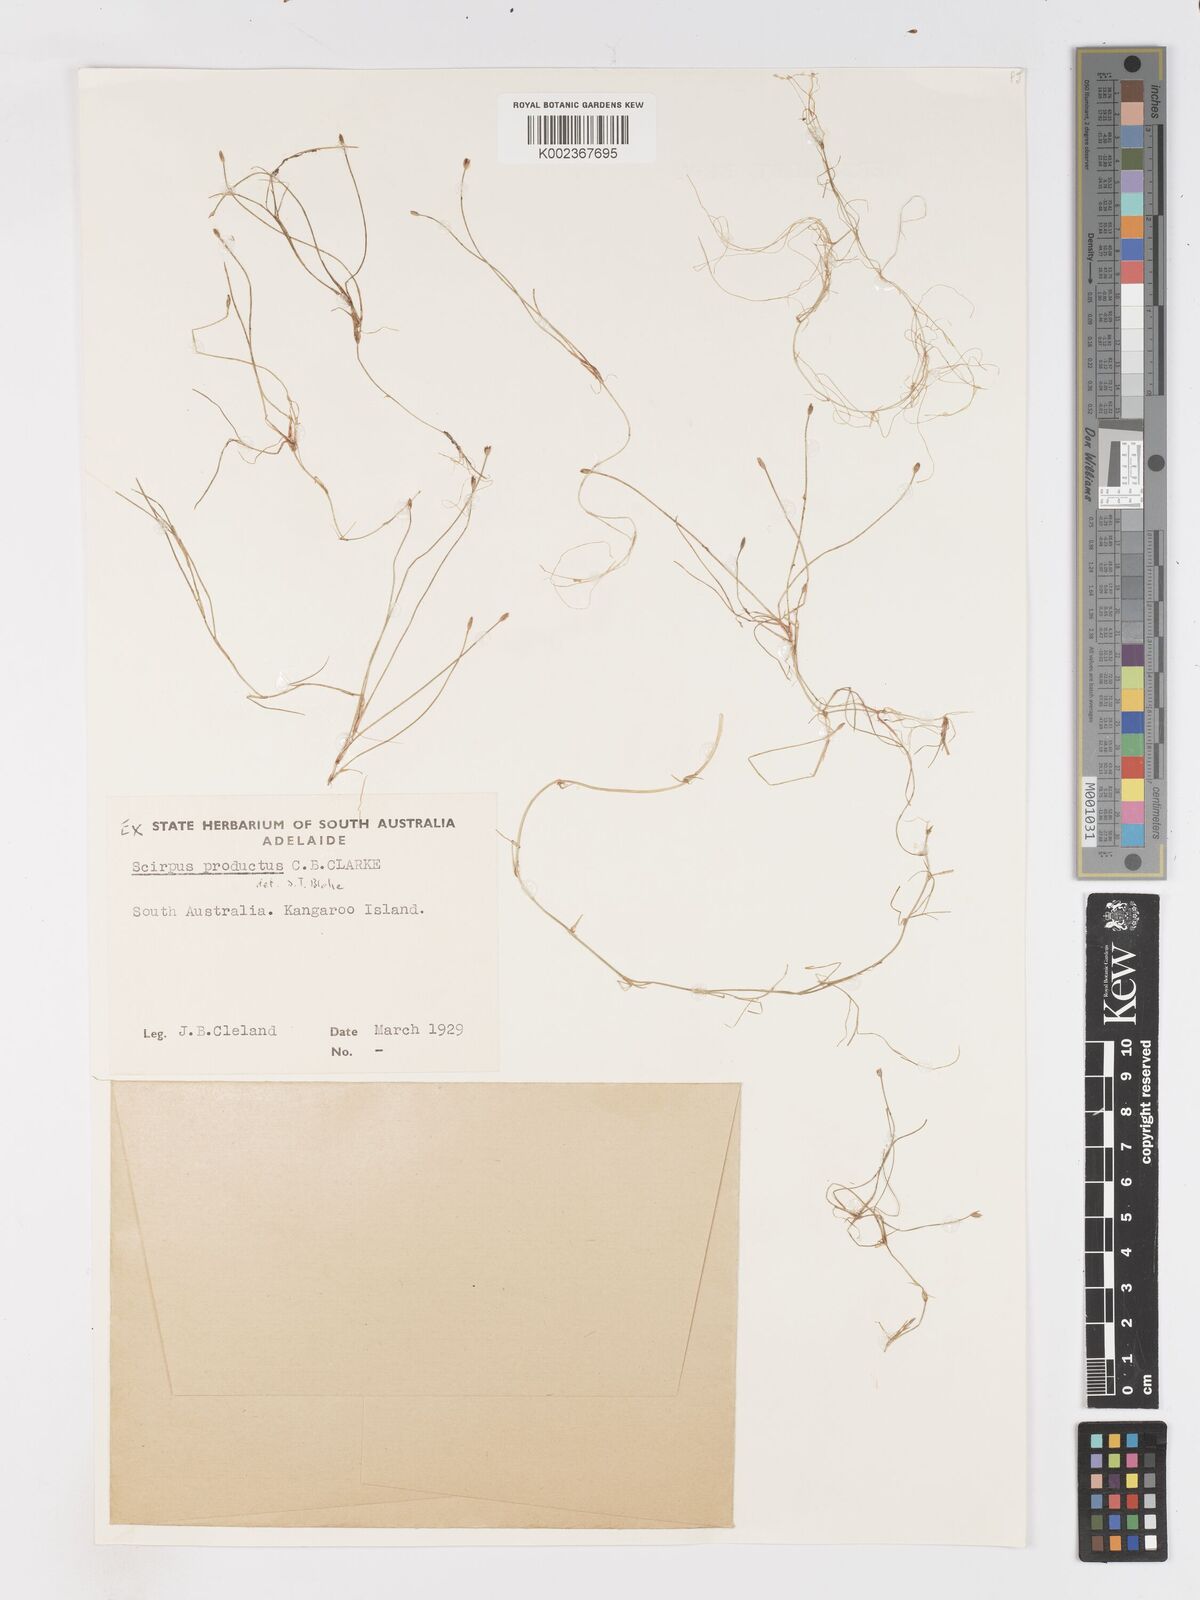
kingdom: Plantae
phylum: Tracheophyta
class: Liliopsida
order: Poales
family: Cyperaceae
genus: Isolepis
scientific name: Isolepis producta
